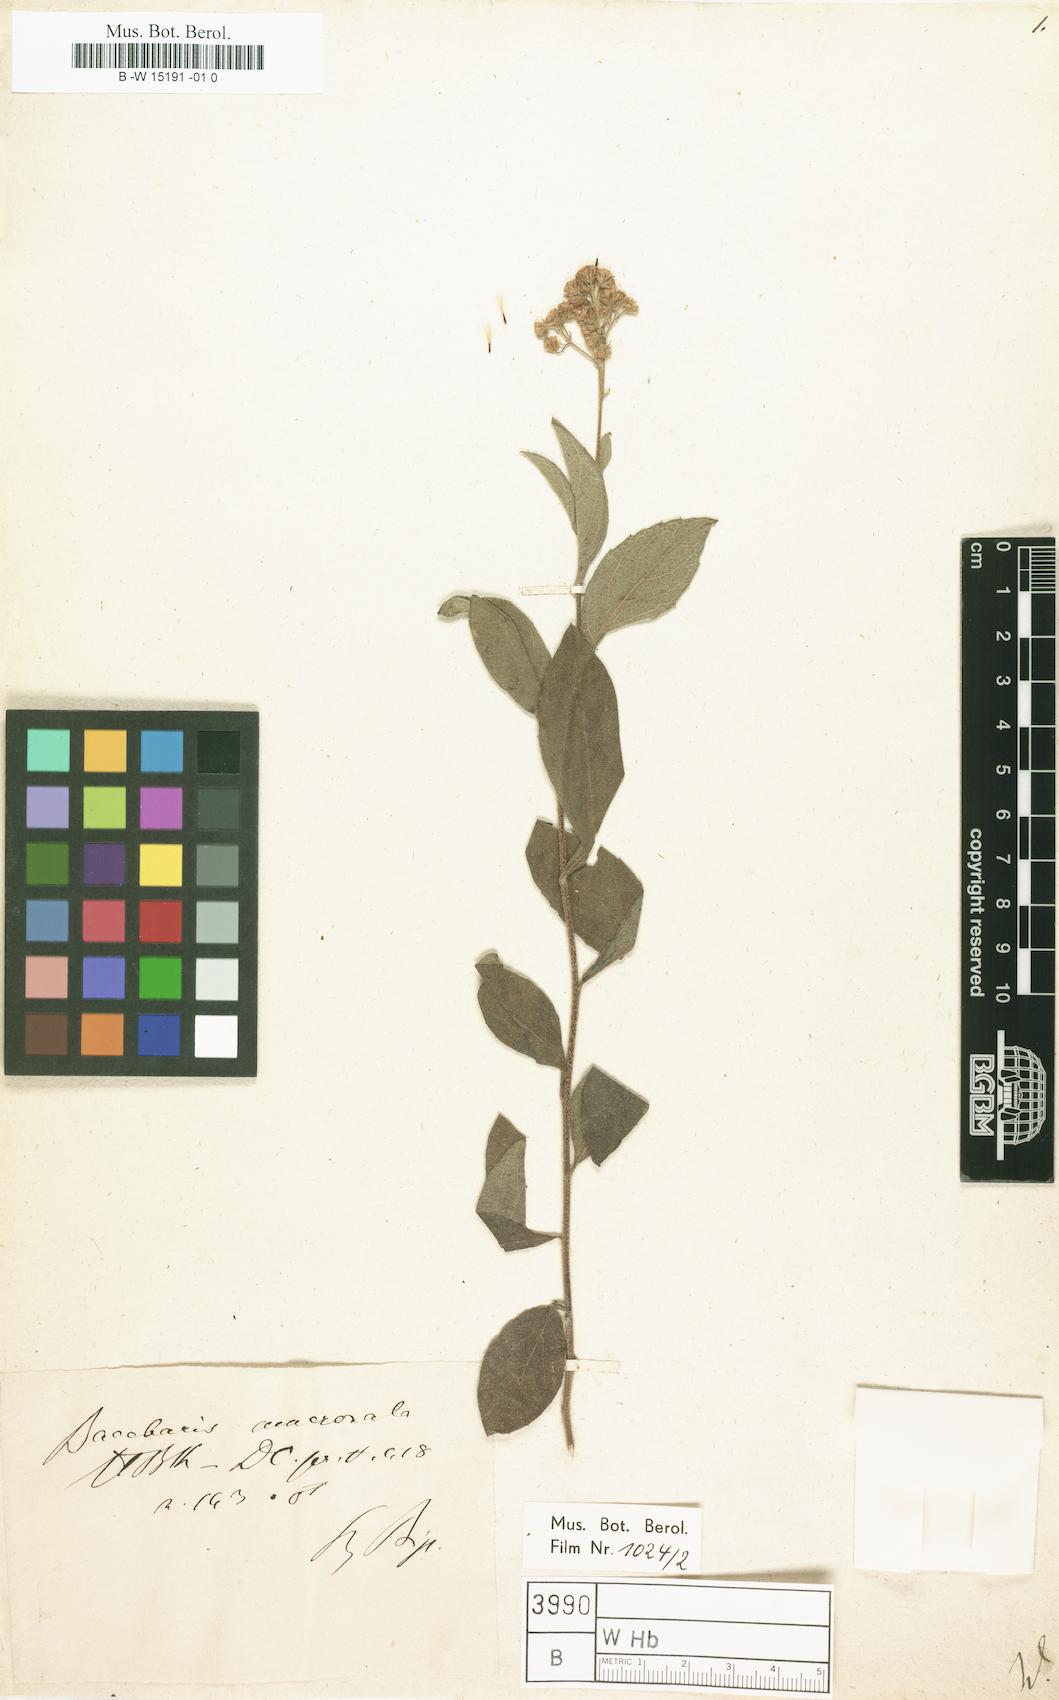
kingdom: Plantae
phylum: Tracheophyta
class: Magnoliopsida
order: Asterales
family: Asteraceae
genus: Eupatorium
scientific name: Eupatorium
